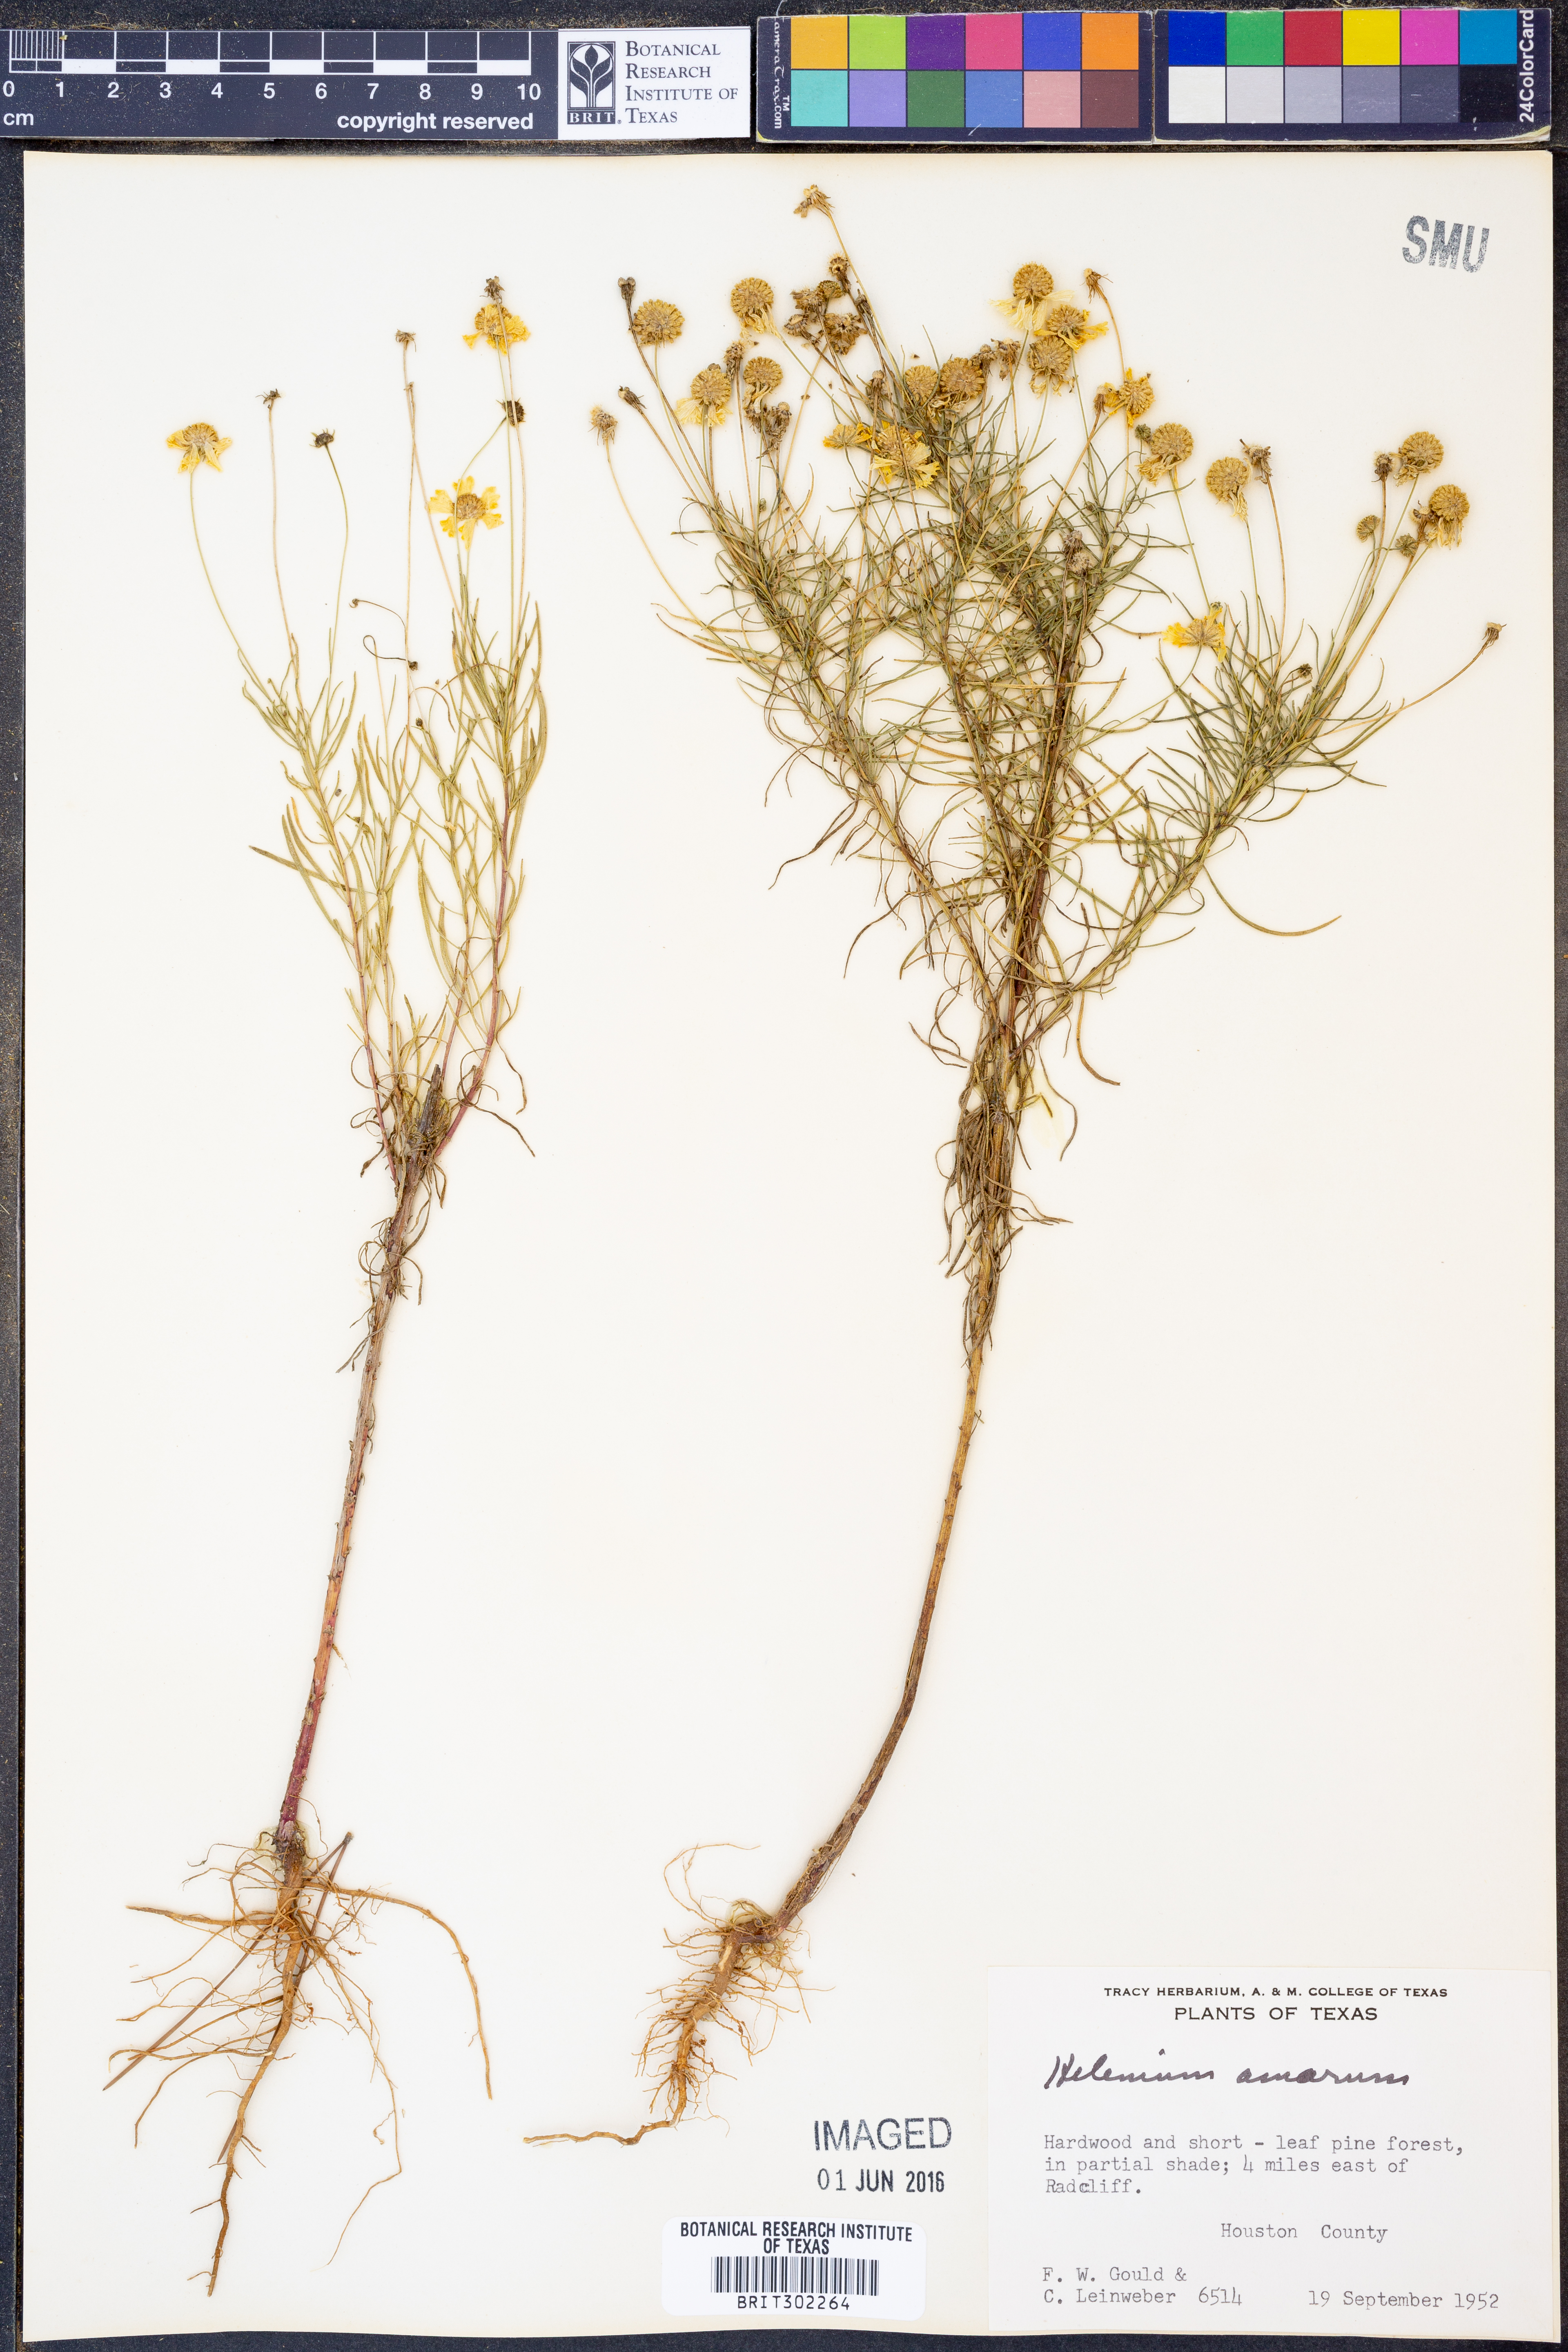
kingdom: Plantae
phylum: Tracheophyta
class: Magnoliopsida
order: Asterales
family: Asteraceae
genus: Helenium
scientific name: Helenium amarum
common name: Bitter sneezeweed
